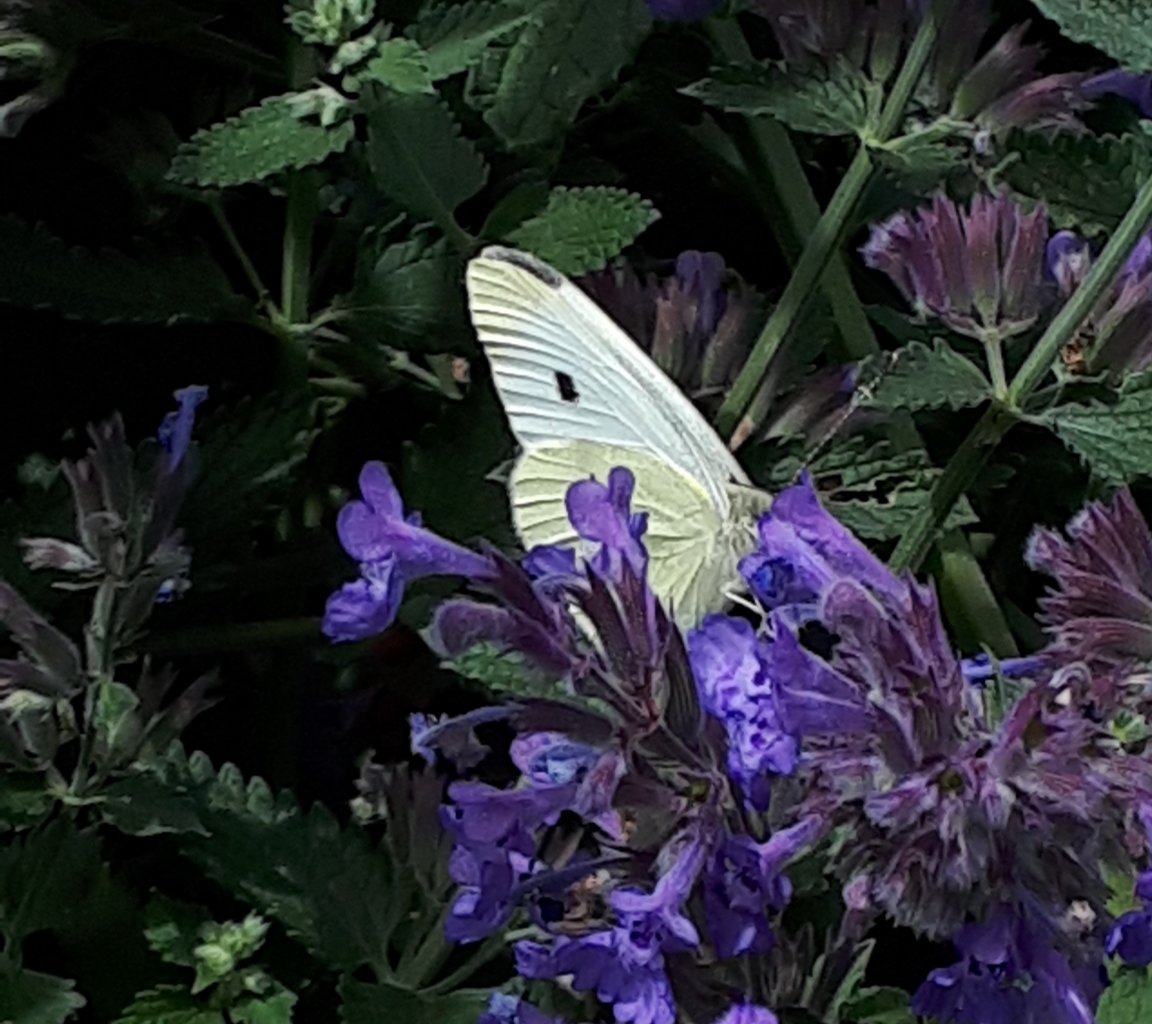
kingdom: Animalia
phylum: Arthropoda
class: Insecta
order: Lepidoptera
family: Pieridae
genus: Pieris
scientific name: Pieris rapae
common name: Cabbage White
